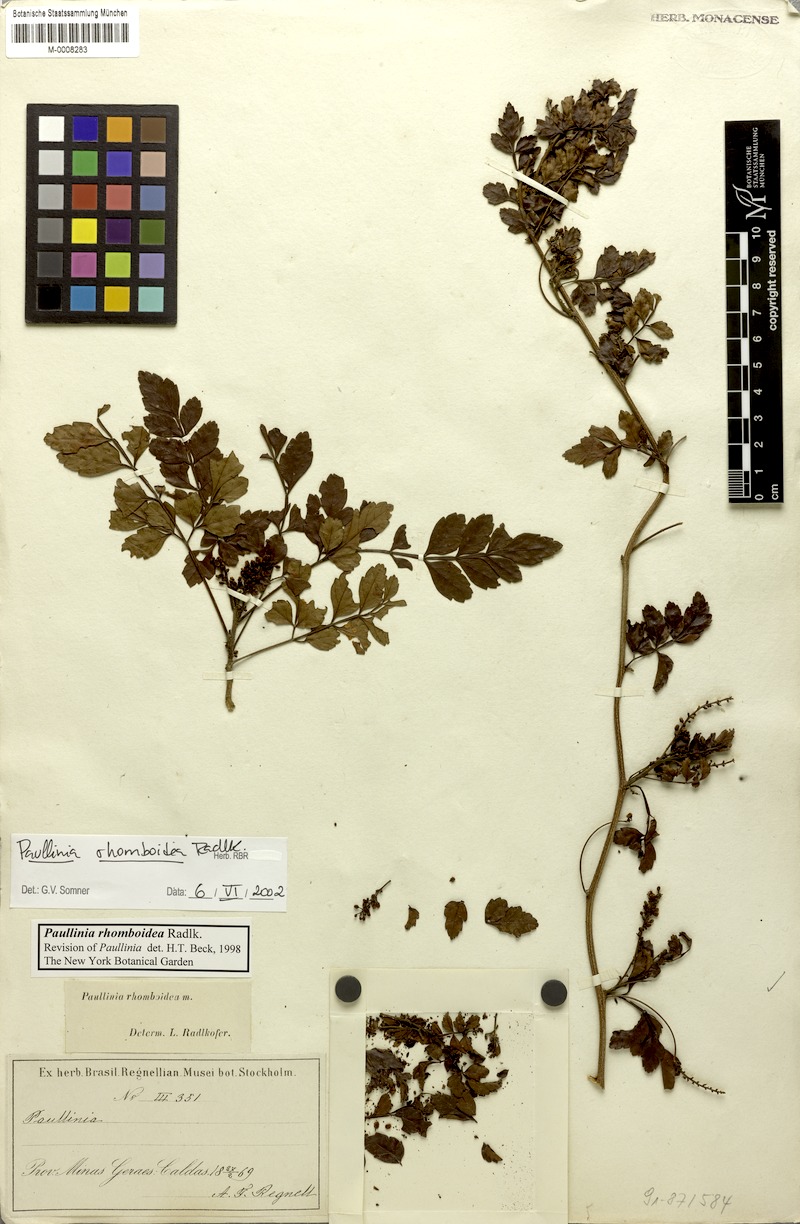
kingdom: Plantae
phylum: Tracheophyta
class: Magnoliopsida
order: Sapindales
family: Sapindaceae
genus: Paullinia
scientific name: Paullinia rhomboidea
